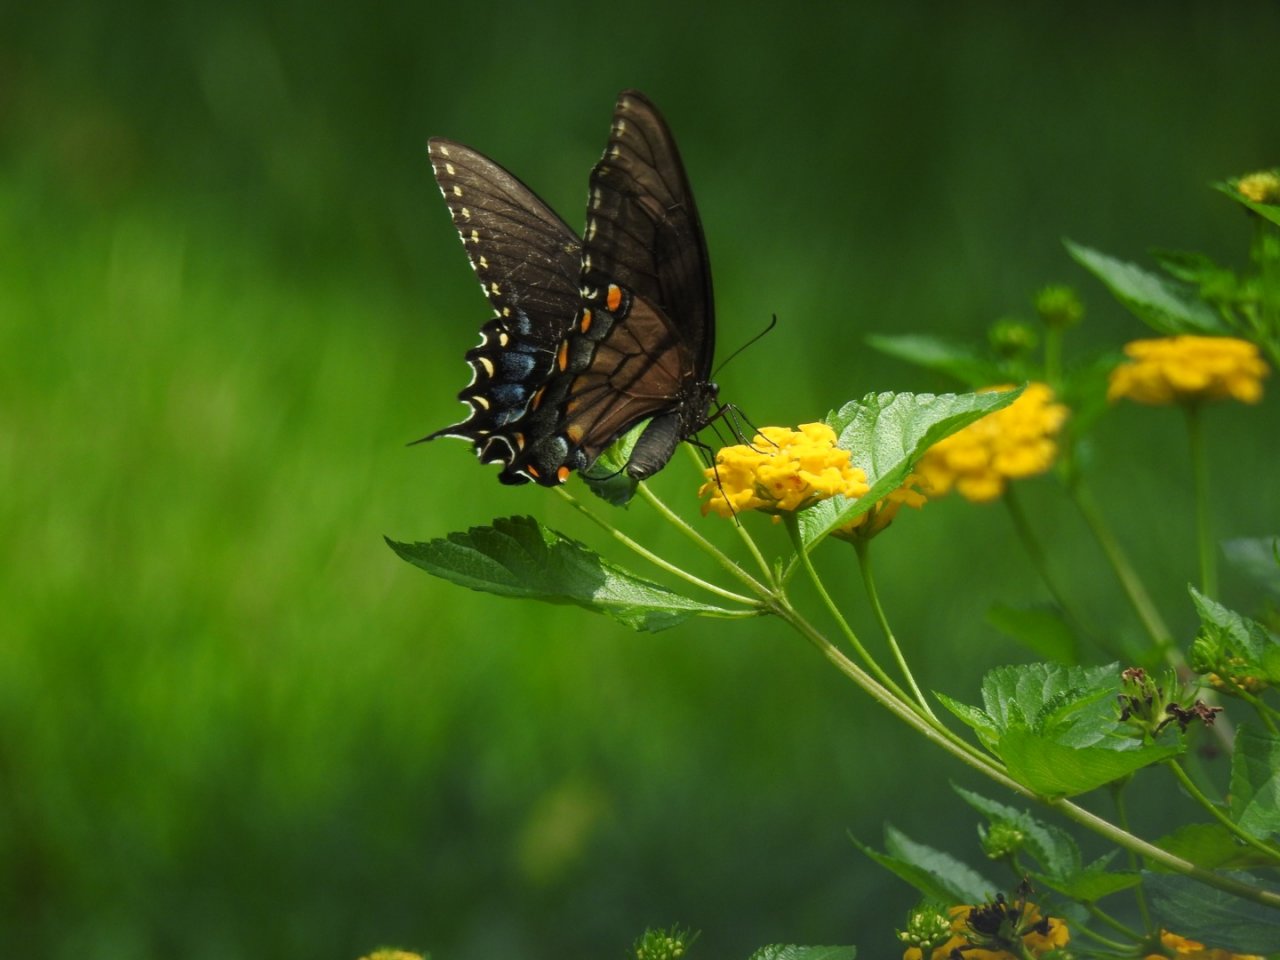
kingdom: Animalia
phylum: Arthropoda
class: Insecta
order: Lepidoptera
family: Papilionidae
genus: Pterourus
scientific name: Pterourus glaucus
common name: Eastern Tiger Swallowtail
